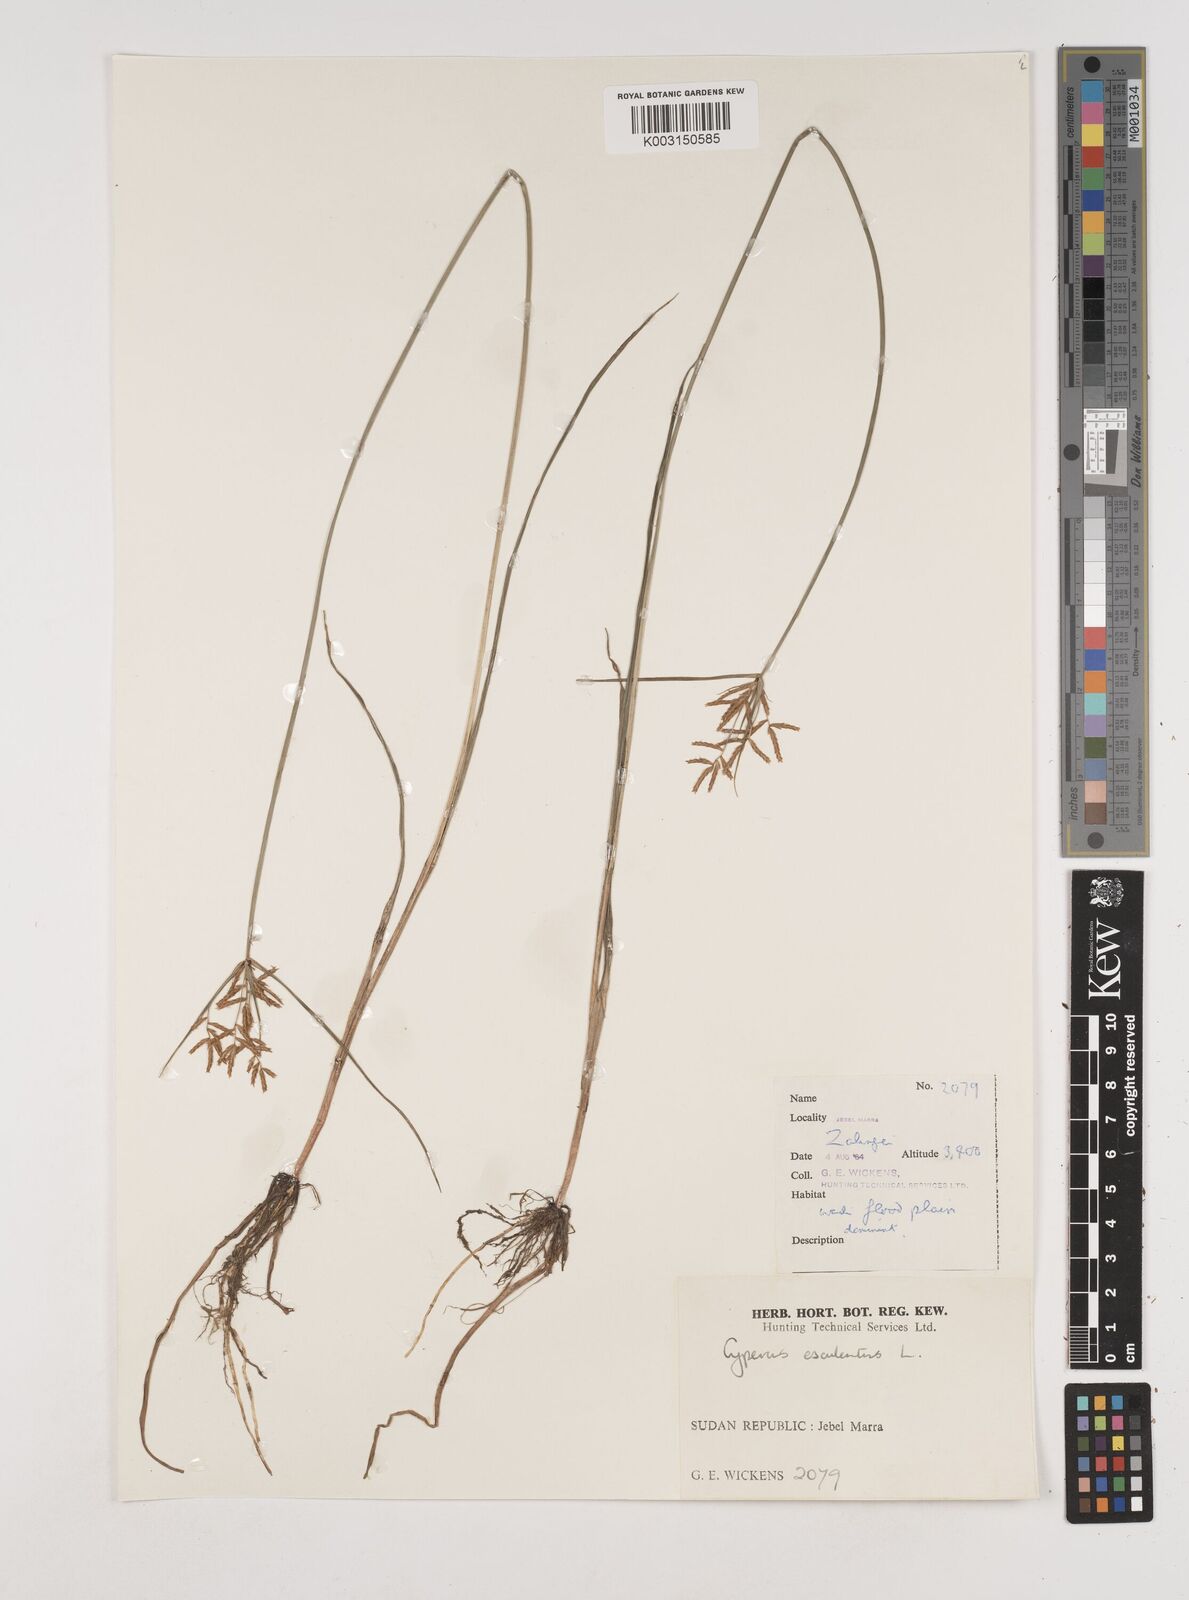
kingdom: Plantae
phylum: Tracheophyta
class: Liliopsida
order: Poales
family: Cyperaceae
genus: Cyperus
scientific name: Cyperus esculentus
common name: Yellow nutsedge
